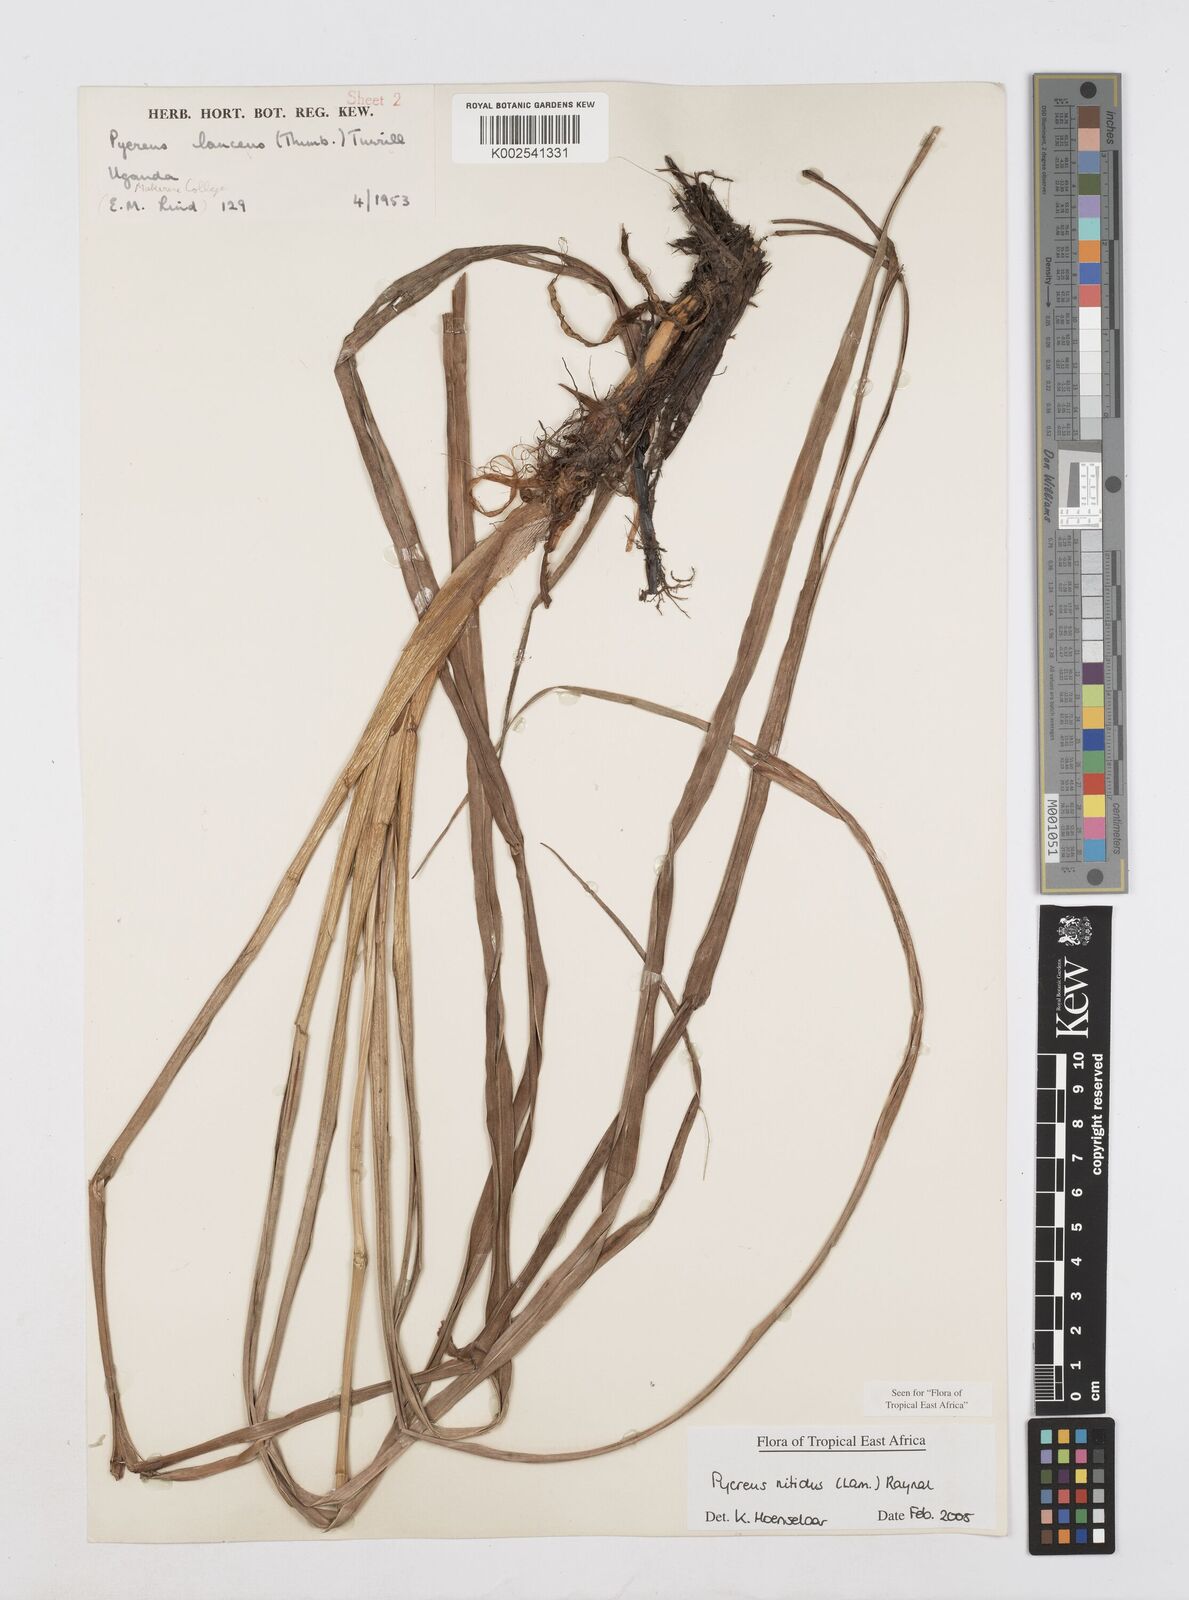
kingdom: Plantae
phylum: Tracheophyta
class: Liliopsida
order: Poales
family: Cyperaceae
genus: Cyperus
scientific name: Cyperus nitidus
